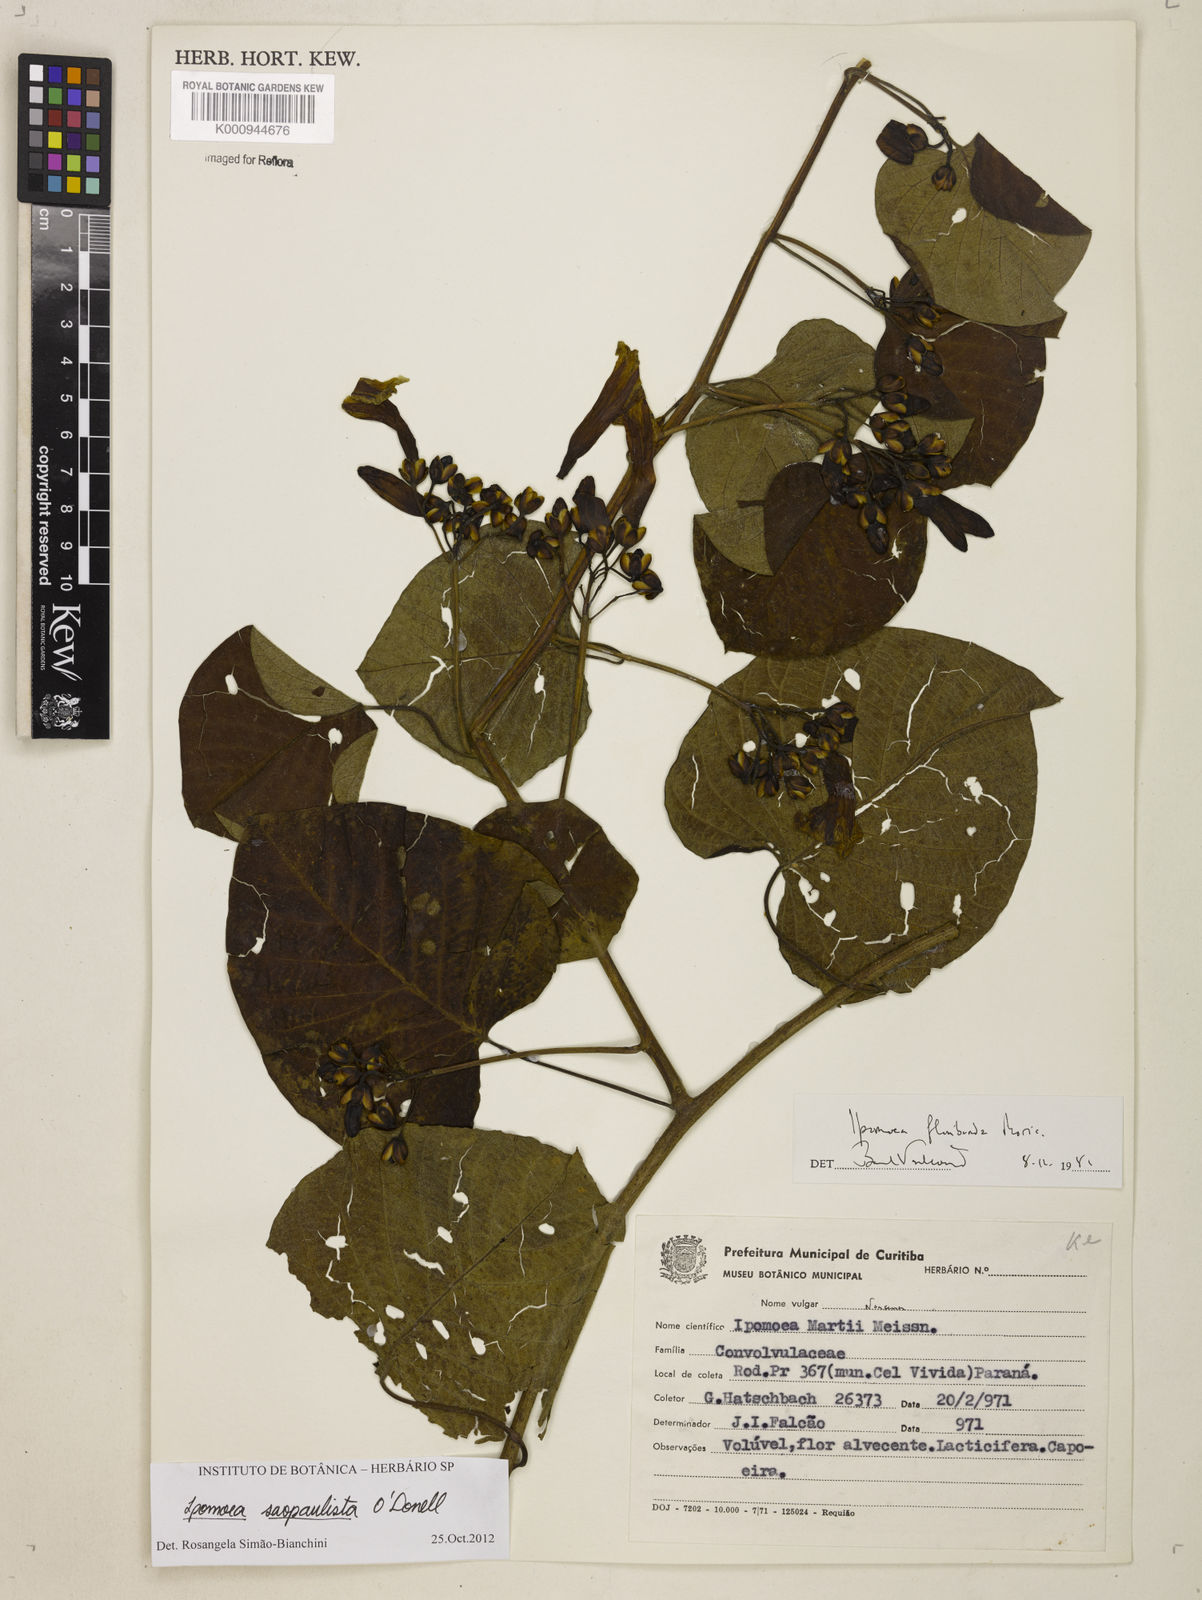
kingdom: Plantae
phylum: Tracheophyta
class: Magnoliopsida
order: Solanales
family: Convolvulaceae
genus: Ipomoea
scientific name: Ipomoea
